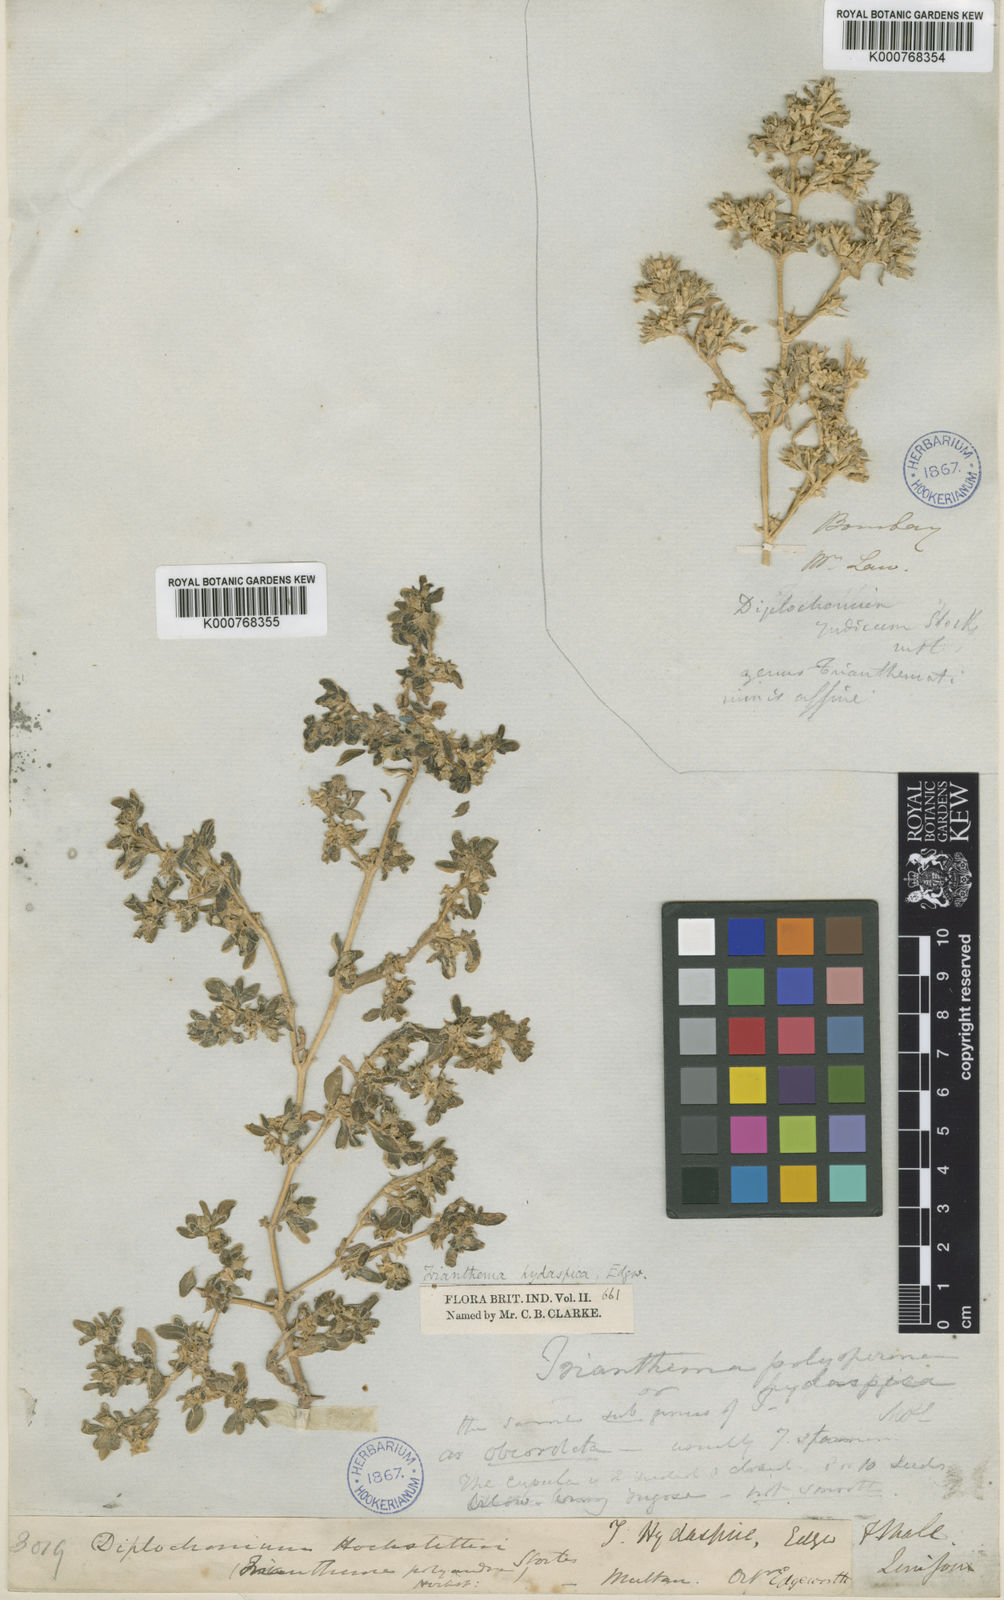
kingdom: Plantae
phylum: Tracheophyta
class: Magnoliopsida
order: Caryophyllales
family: Aizoaceae
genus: Sesuvium
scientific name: Sesuvium sesuvioides
